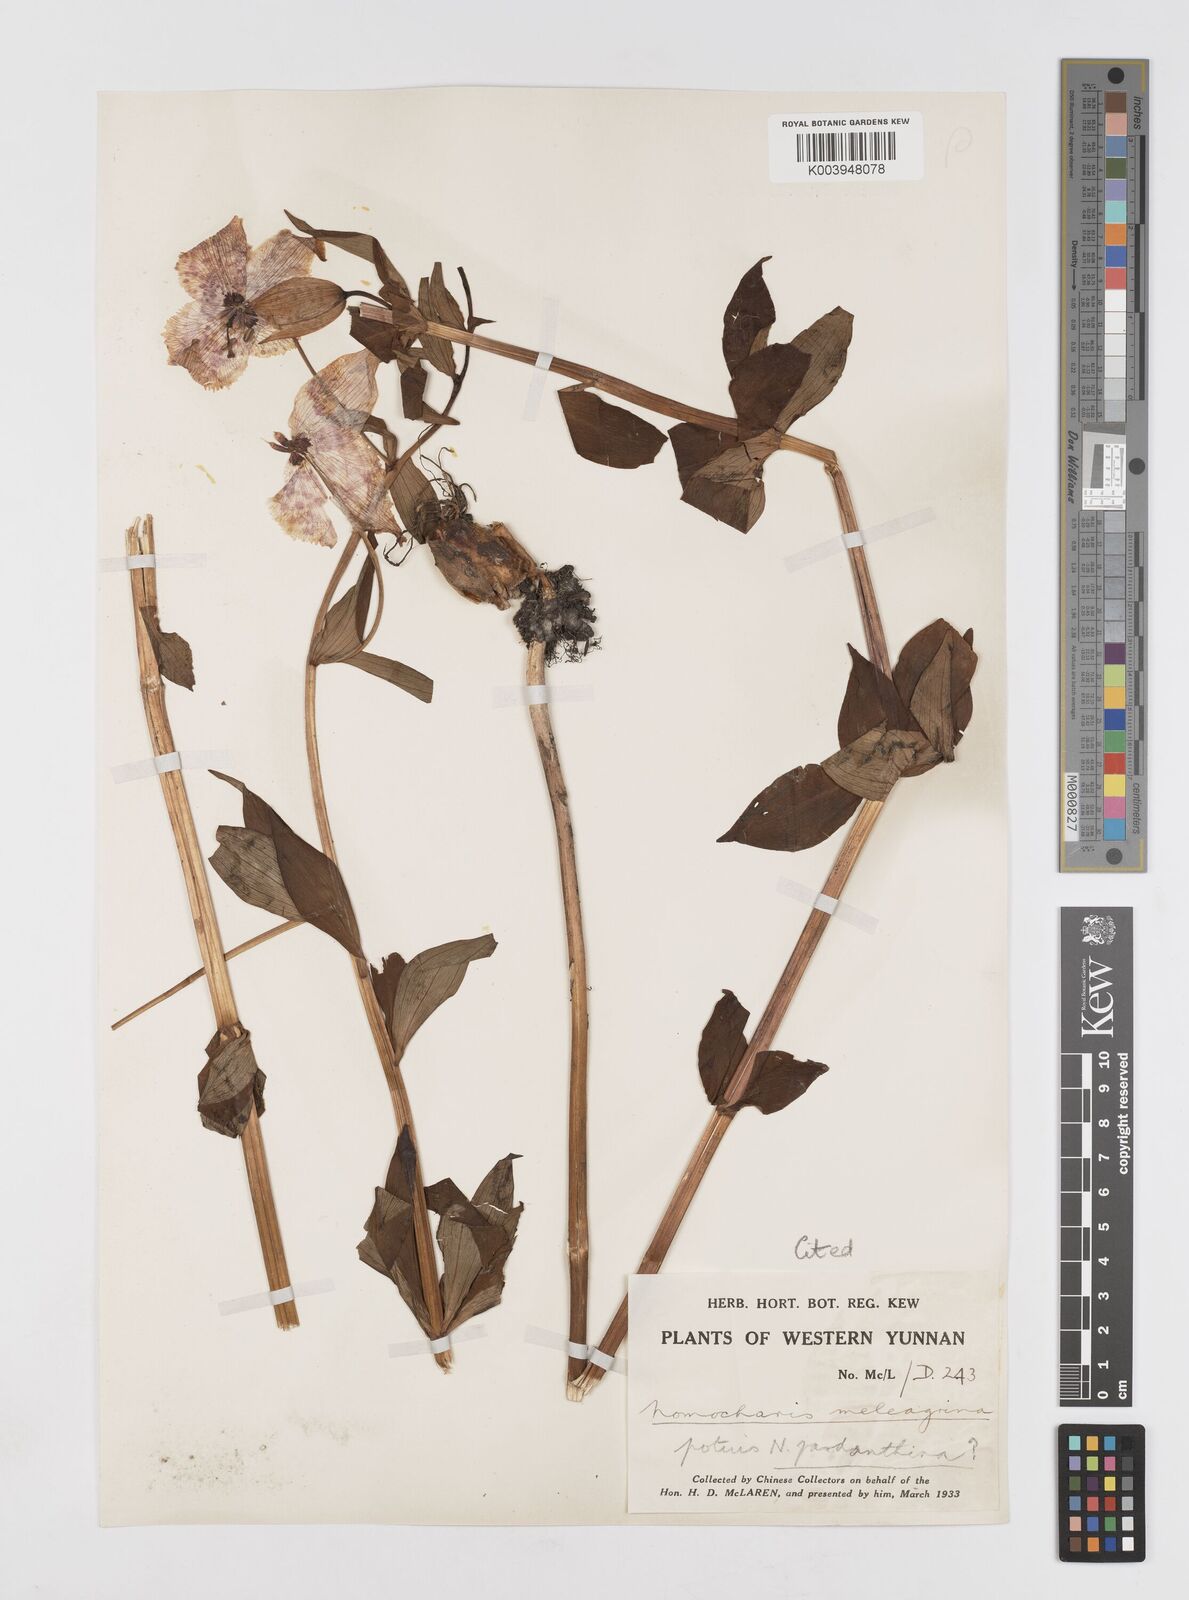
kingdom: Plantae
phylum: Tracheophyta
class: Liliopsida
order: Liliales
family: Liliaceae
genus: Lilium
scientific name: Lilium pardanthinum
